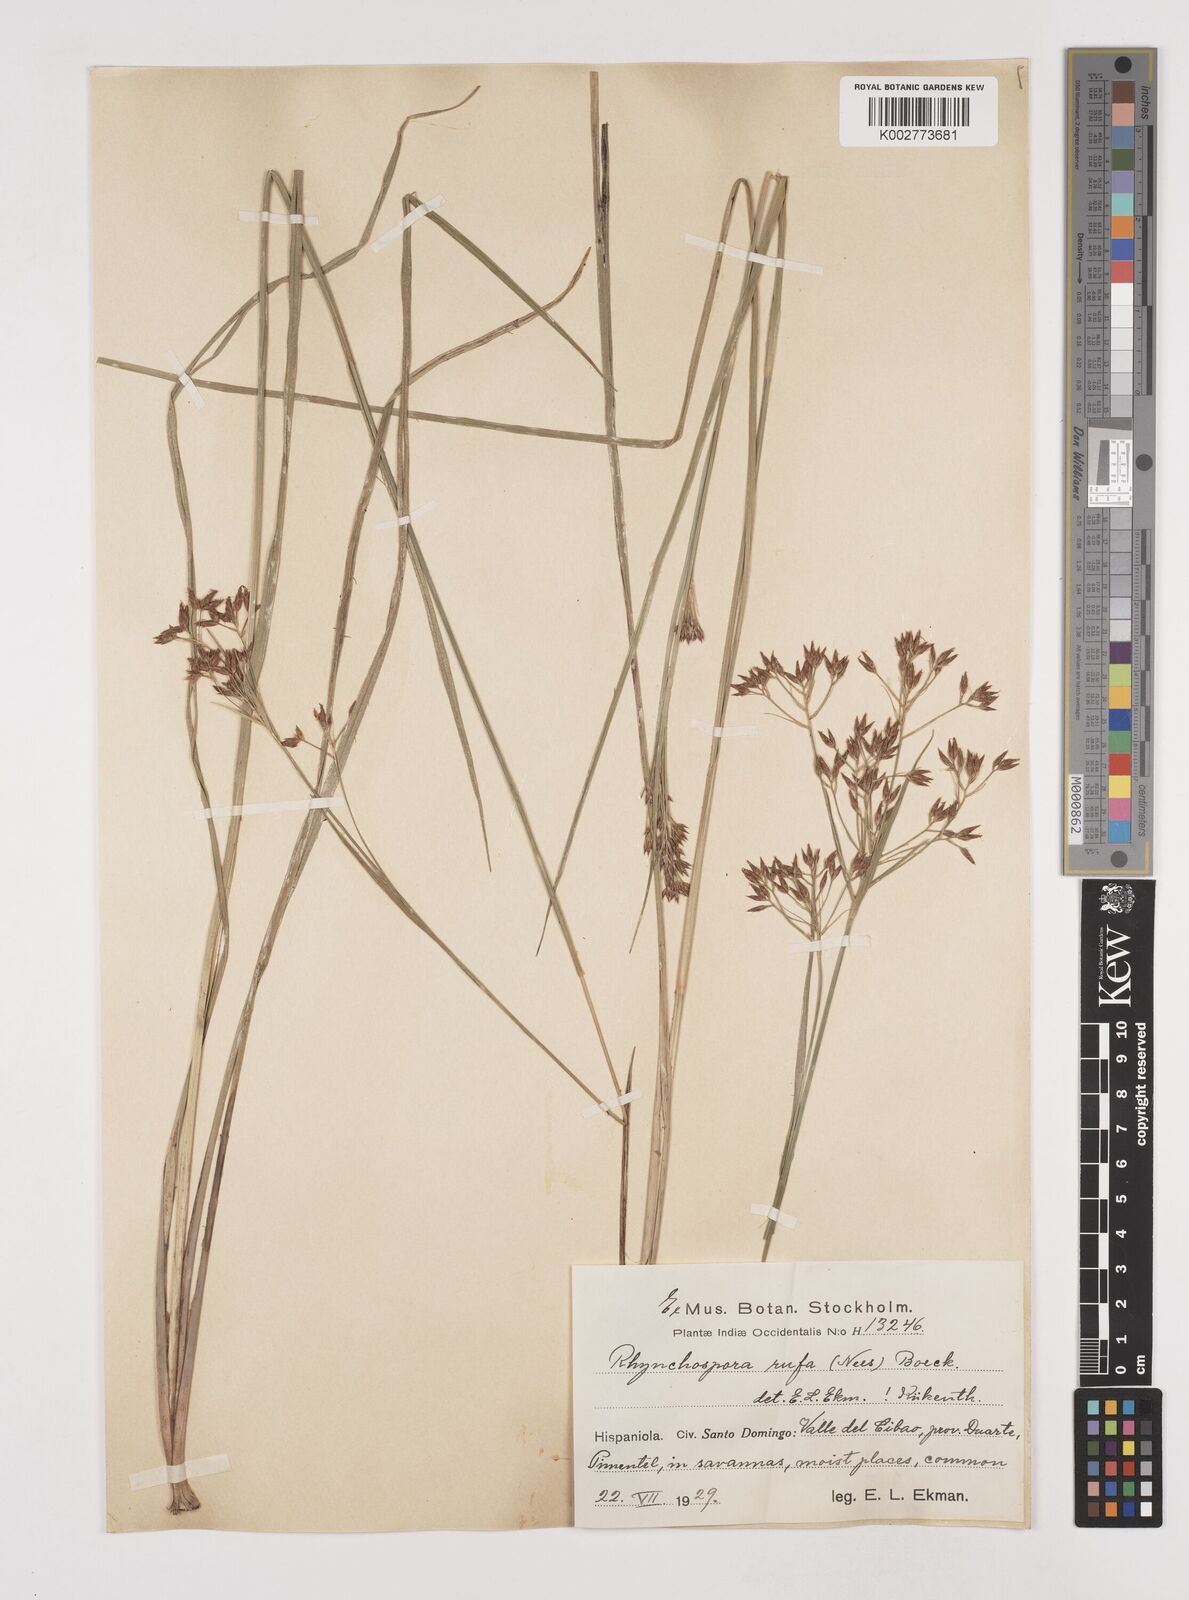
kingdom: Plantae
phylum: Tracheophyta
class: Liliopsida
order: Poales
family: Cyperaceae
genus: Rhynchospora
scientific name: Rhynchospora velutina
